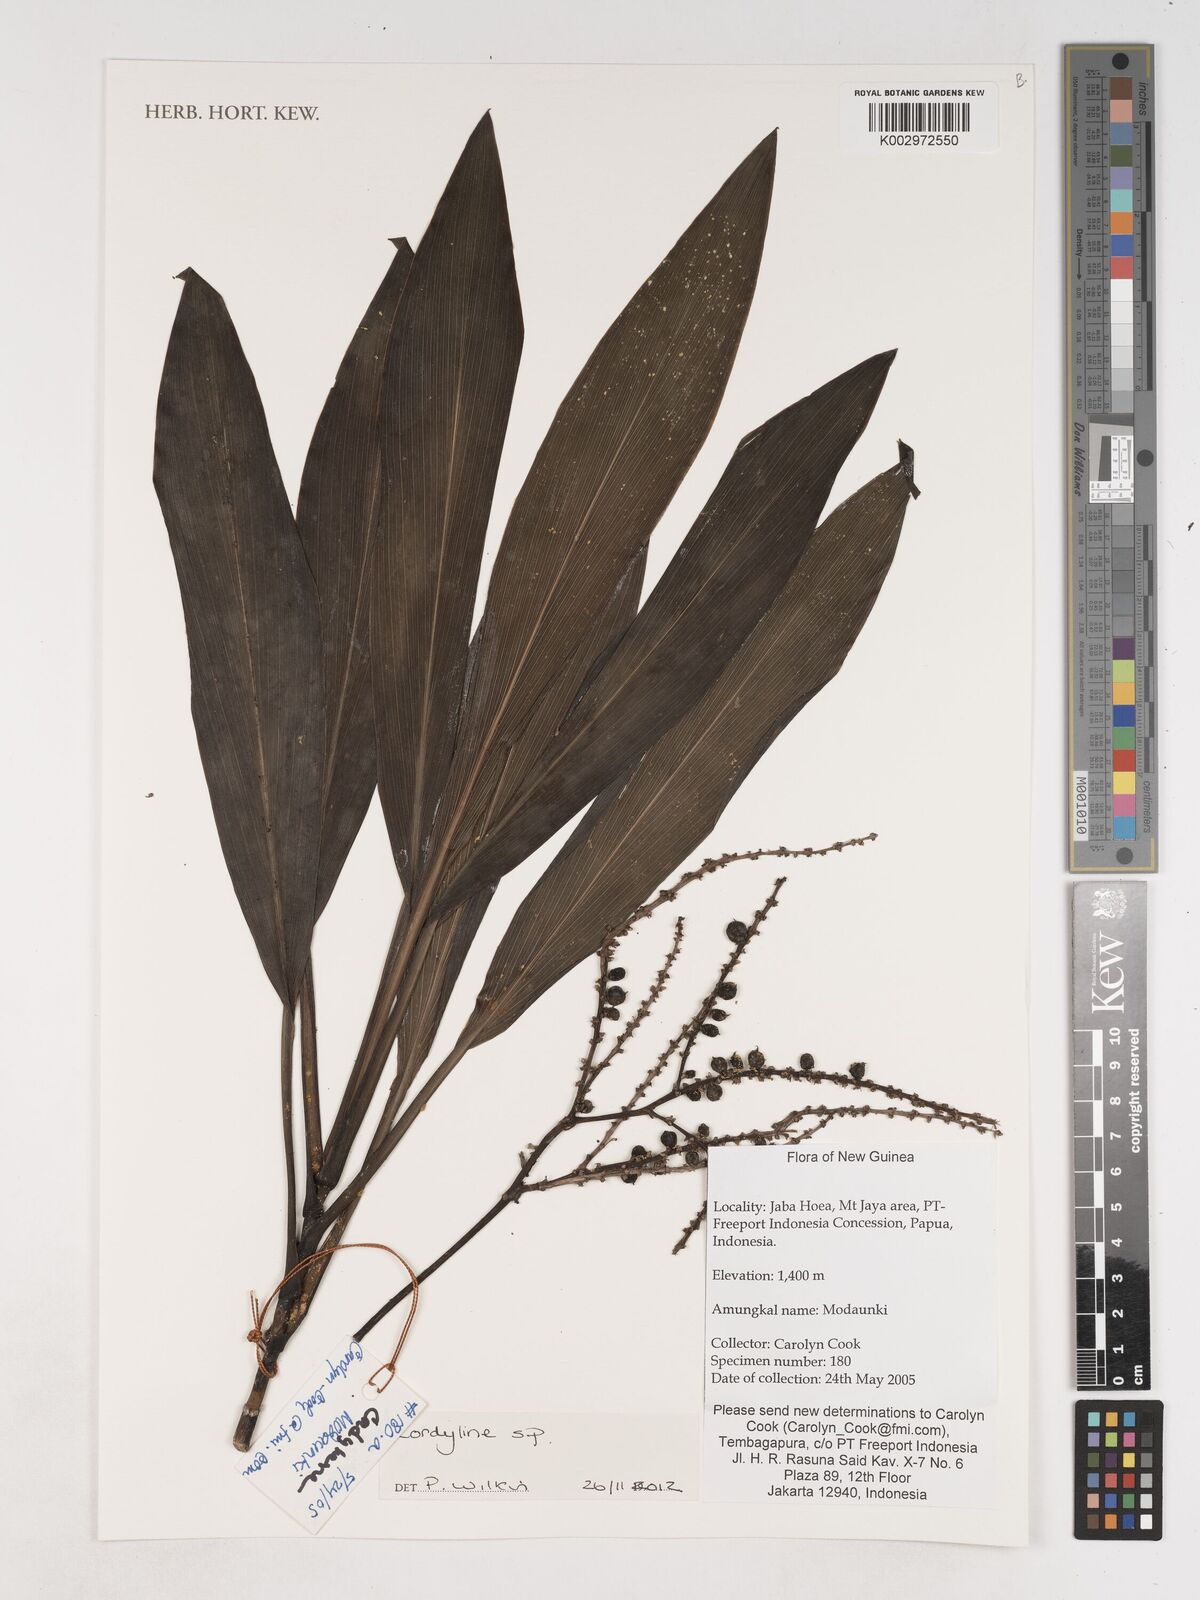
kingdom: Plantae
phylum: Tracheophyta
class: Liliopsida
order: Asparagales
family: Asparagaceae
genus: Cordyline
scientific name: Cordyline
